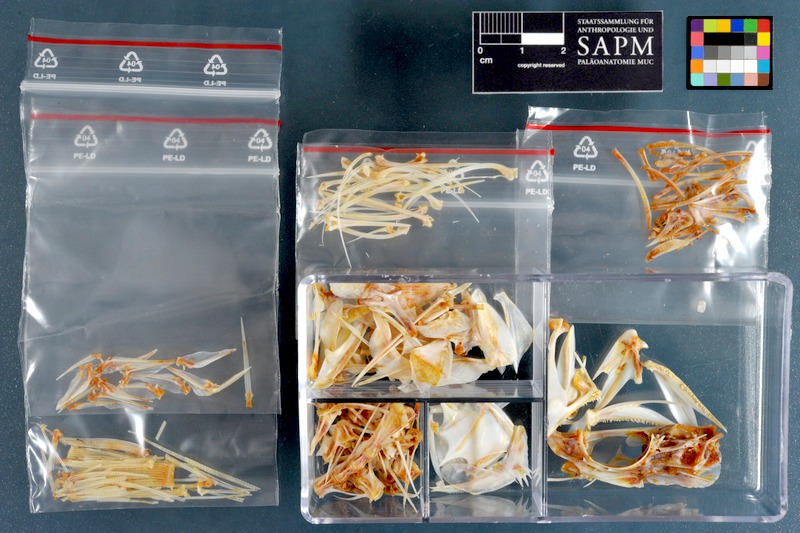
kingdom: Animalia
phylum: Chordata
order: Perciformes
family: Serranidae
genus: Epinephelus
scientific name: Epinephelus areolatus
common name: Areolate grouper
